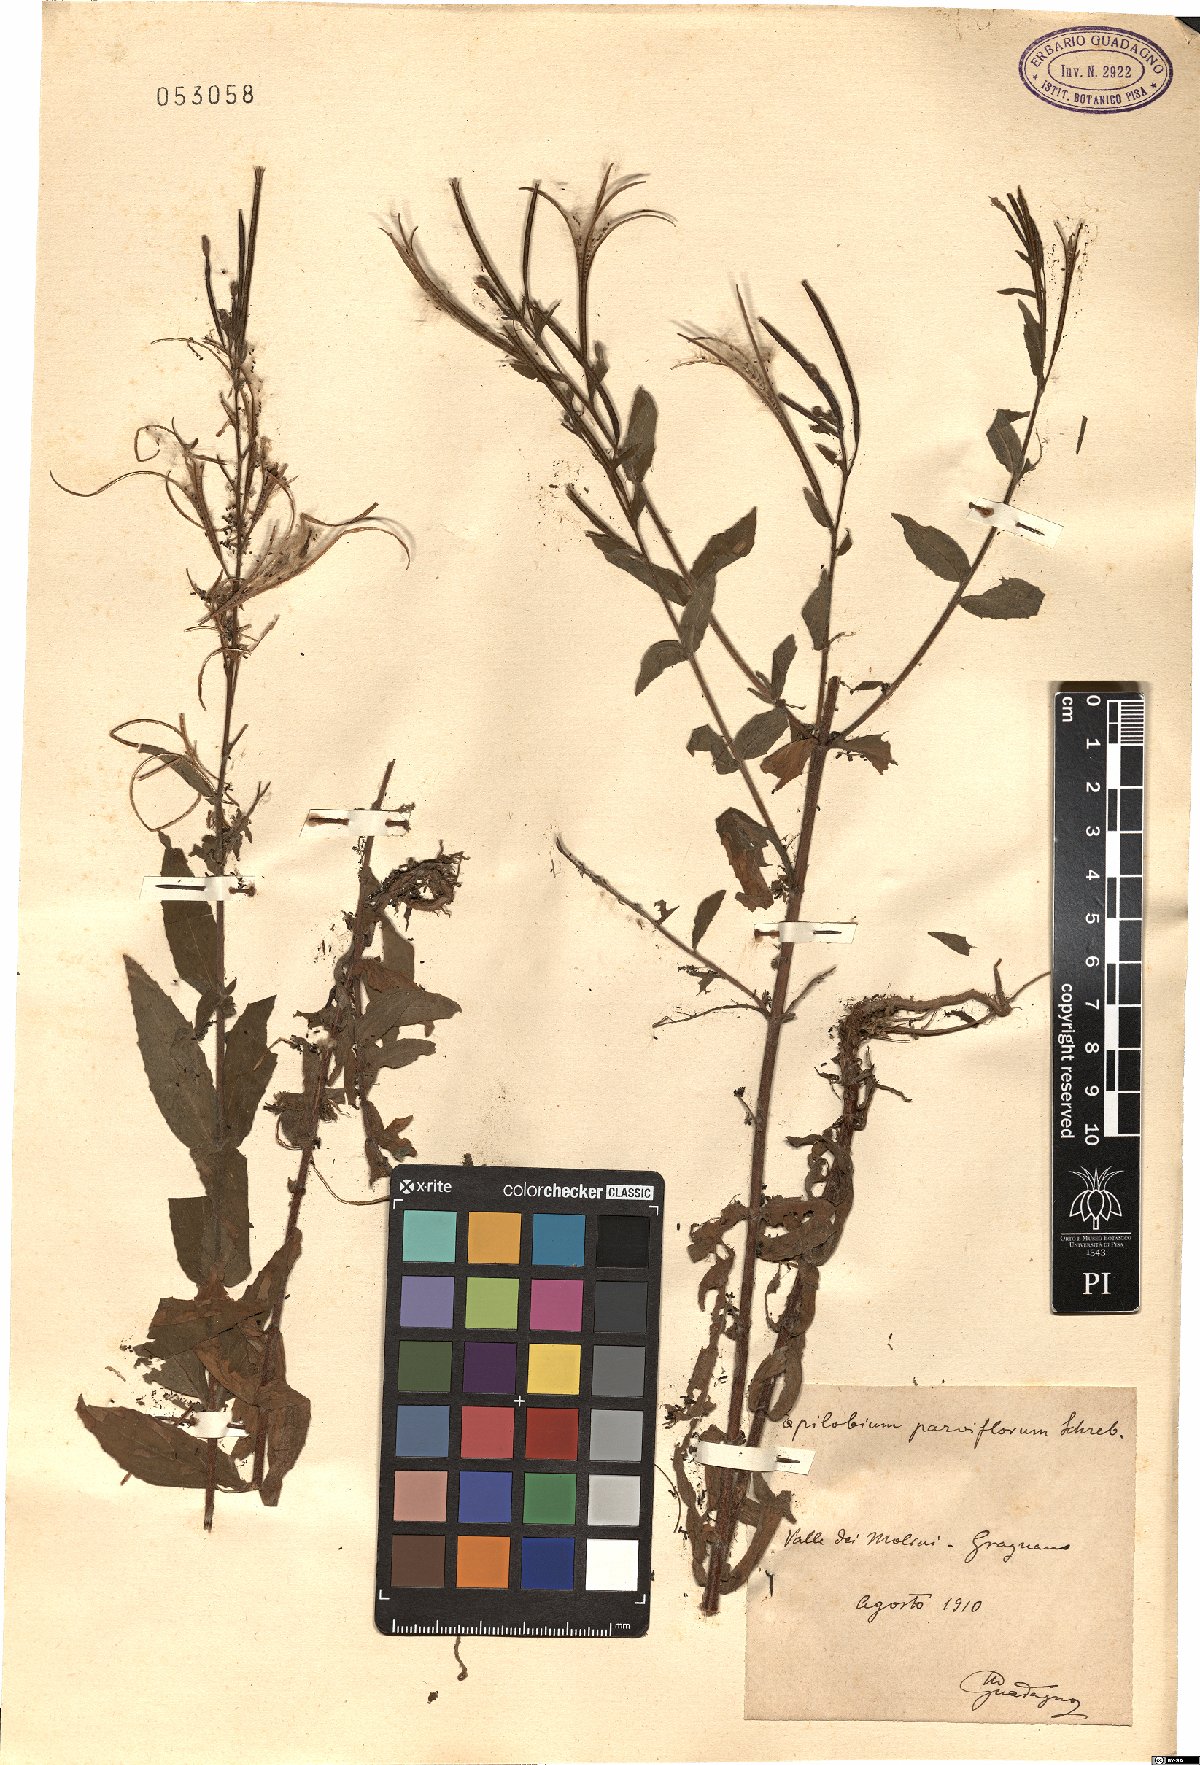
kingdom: Plantae
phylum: Tracheophyta
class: Magnoliopsida
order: Myrtales
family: Onagraceae
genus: Epilobium
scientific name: Epilobium parviflorum
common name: Hoary willowherb
